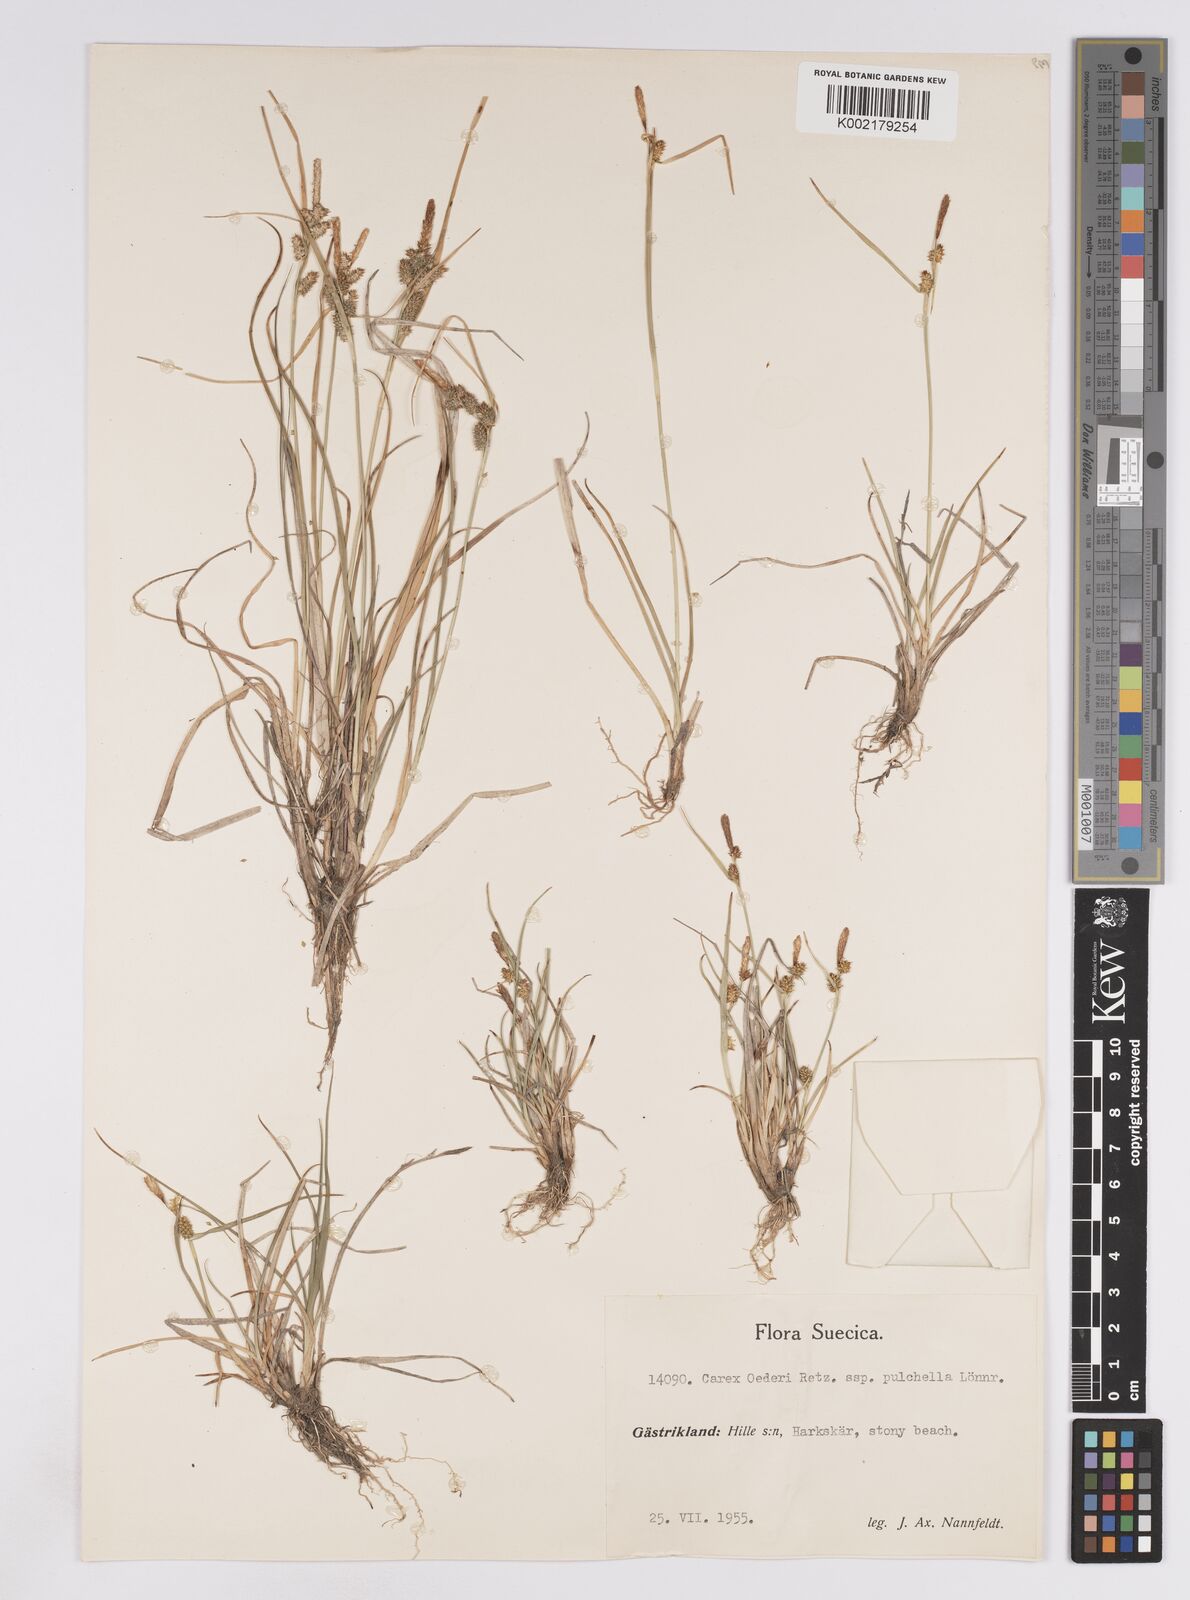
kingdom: Plantae
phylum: Tracheophyta
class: Liliopsida
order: Poales
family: Cyperaceae
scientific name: Cyperaceae
